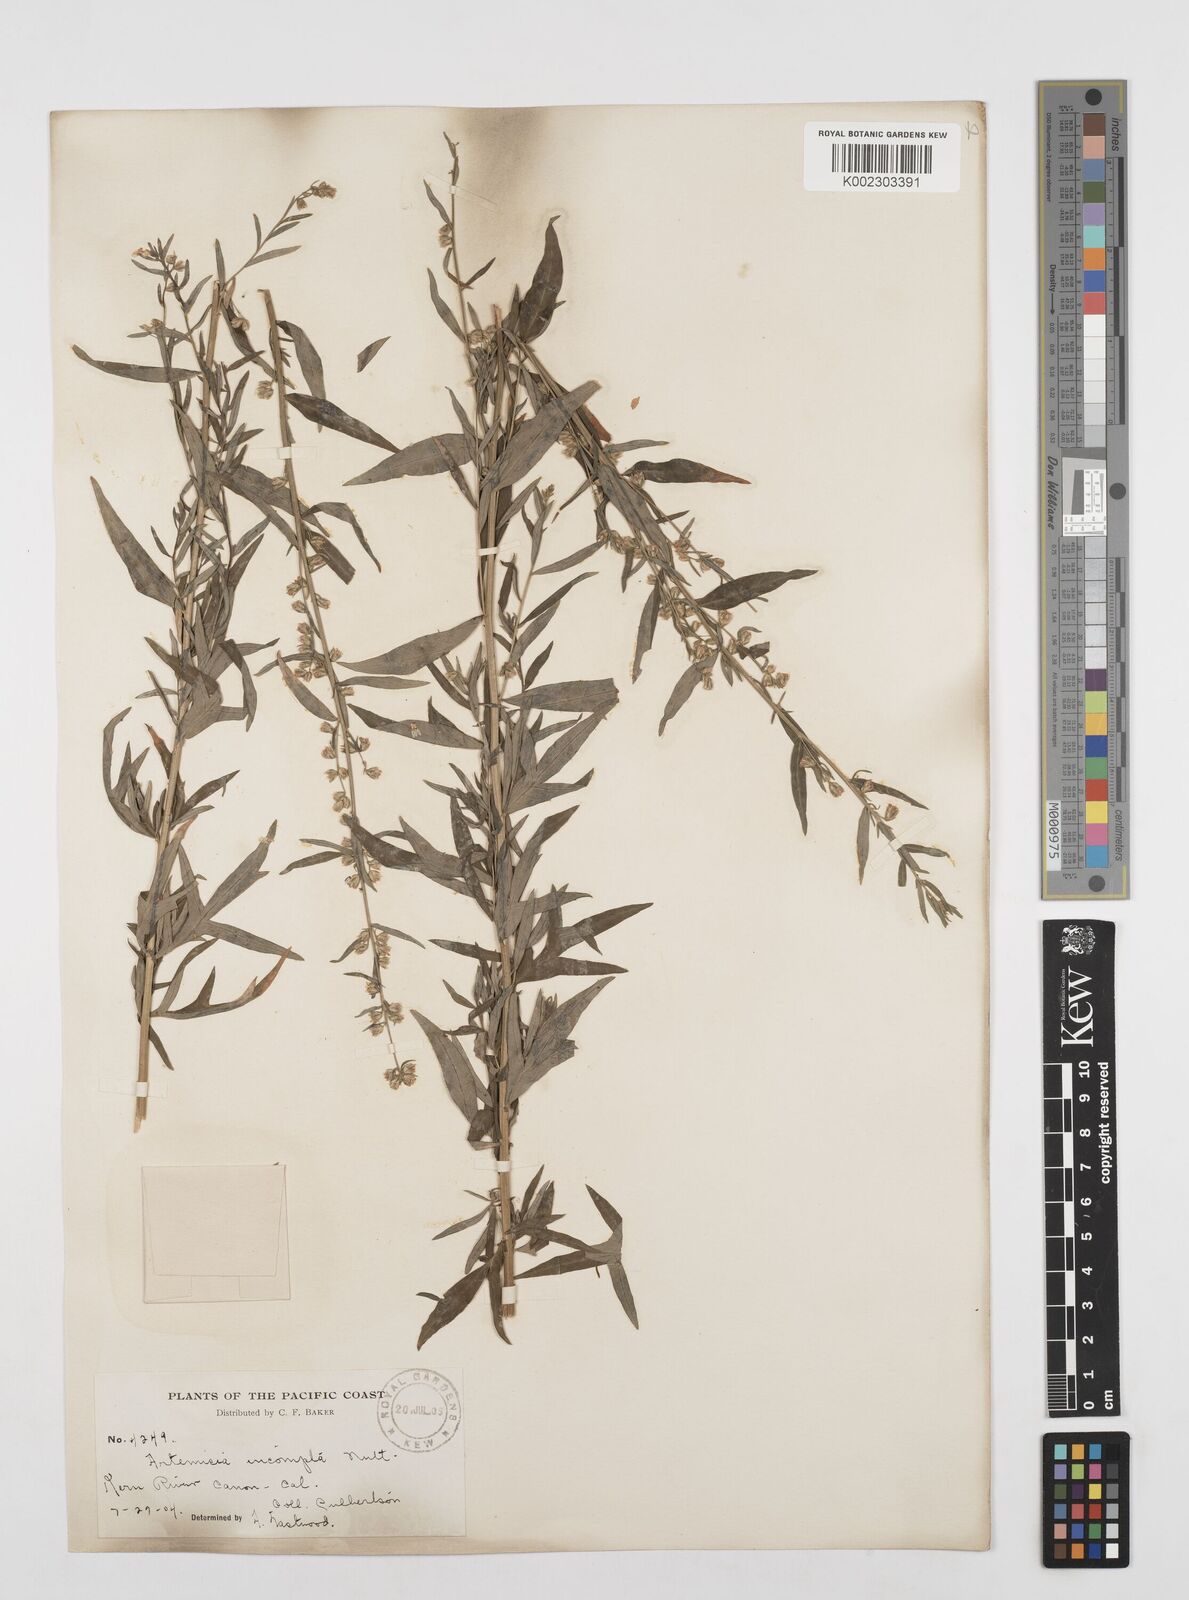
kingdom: Plantae
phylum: Tracheophyta
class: Magnoliopsida
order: Asterales
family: Asteraceae
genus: Artemisia
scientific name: Artemisia
